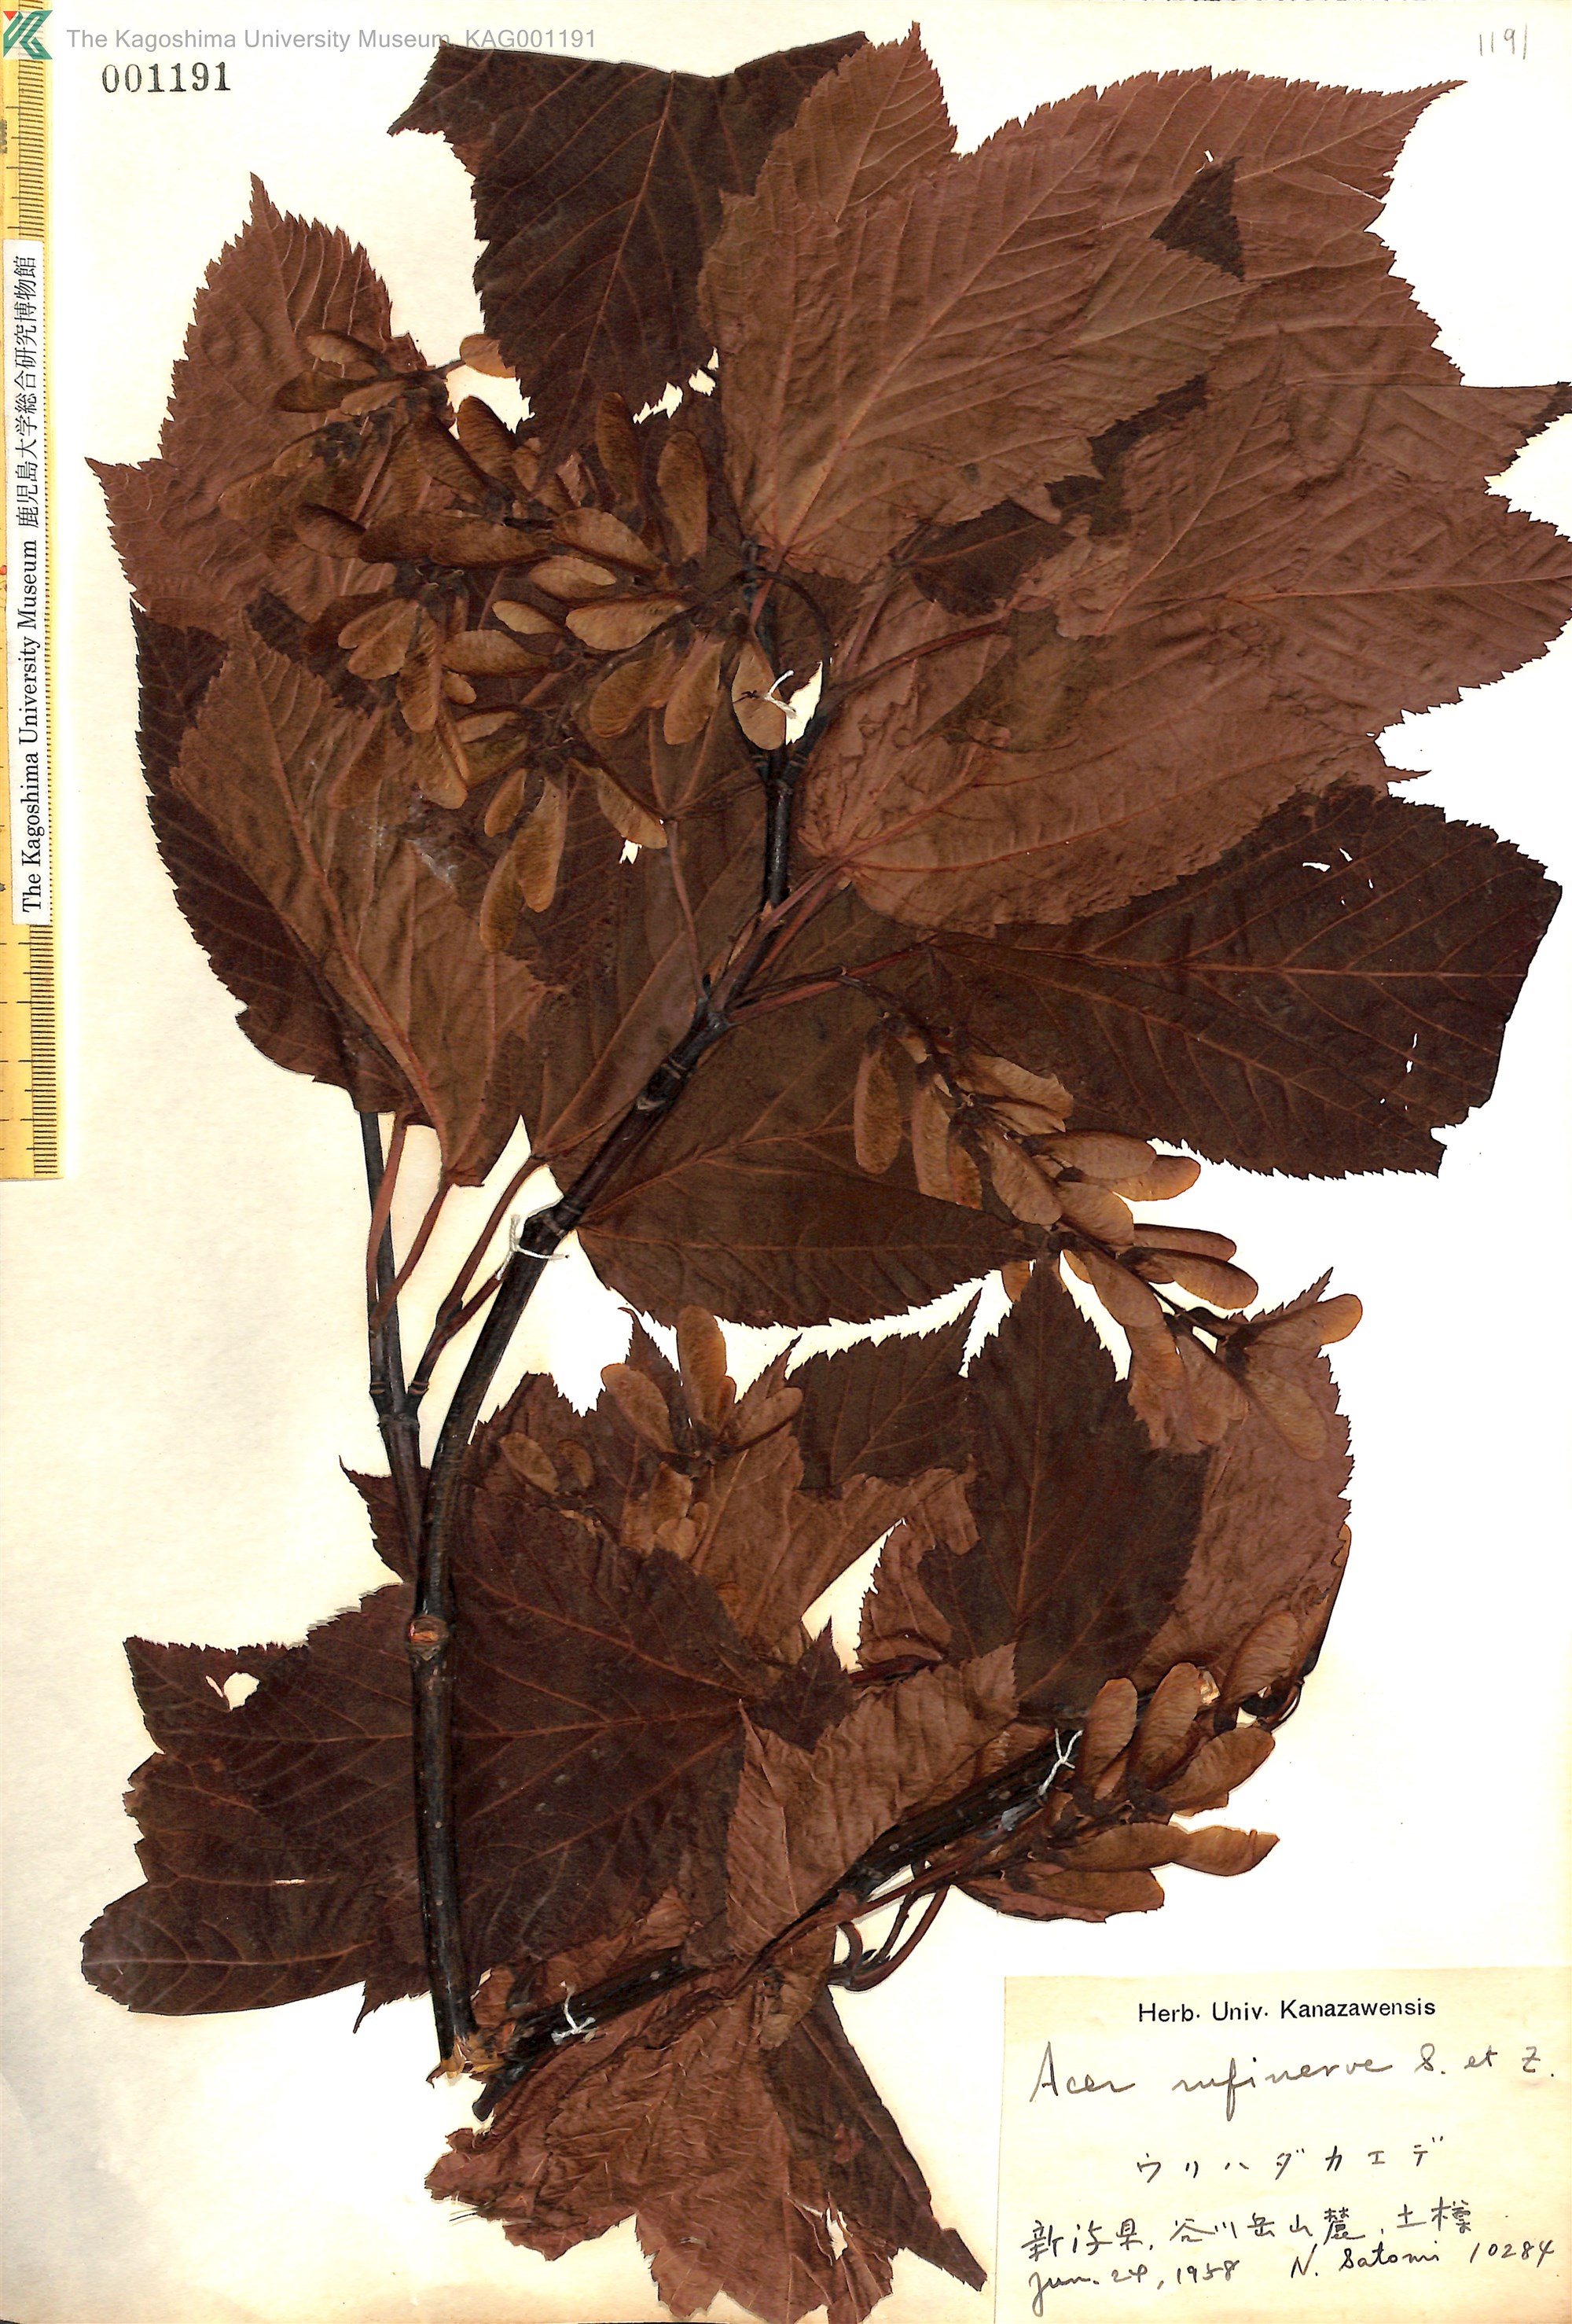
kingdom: Plantae
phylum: Tracheophyta
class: Magnoliopsida
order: Sapindales
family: Sapindaceae
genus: Acer
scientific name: Acer rufinerve
